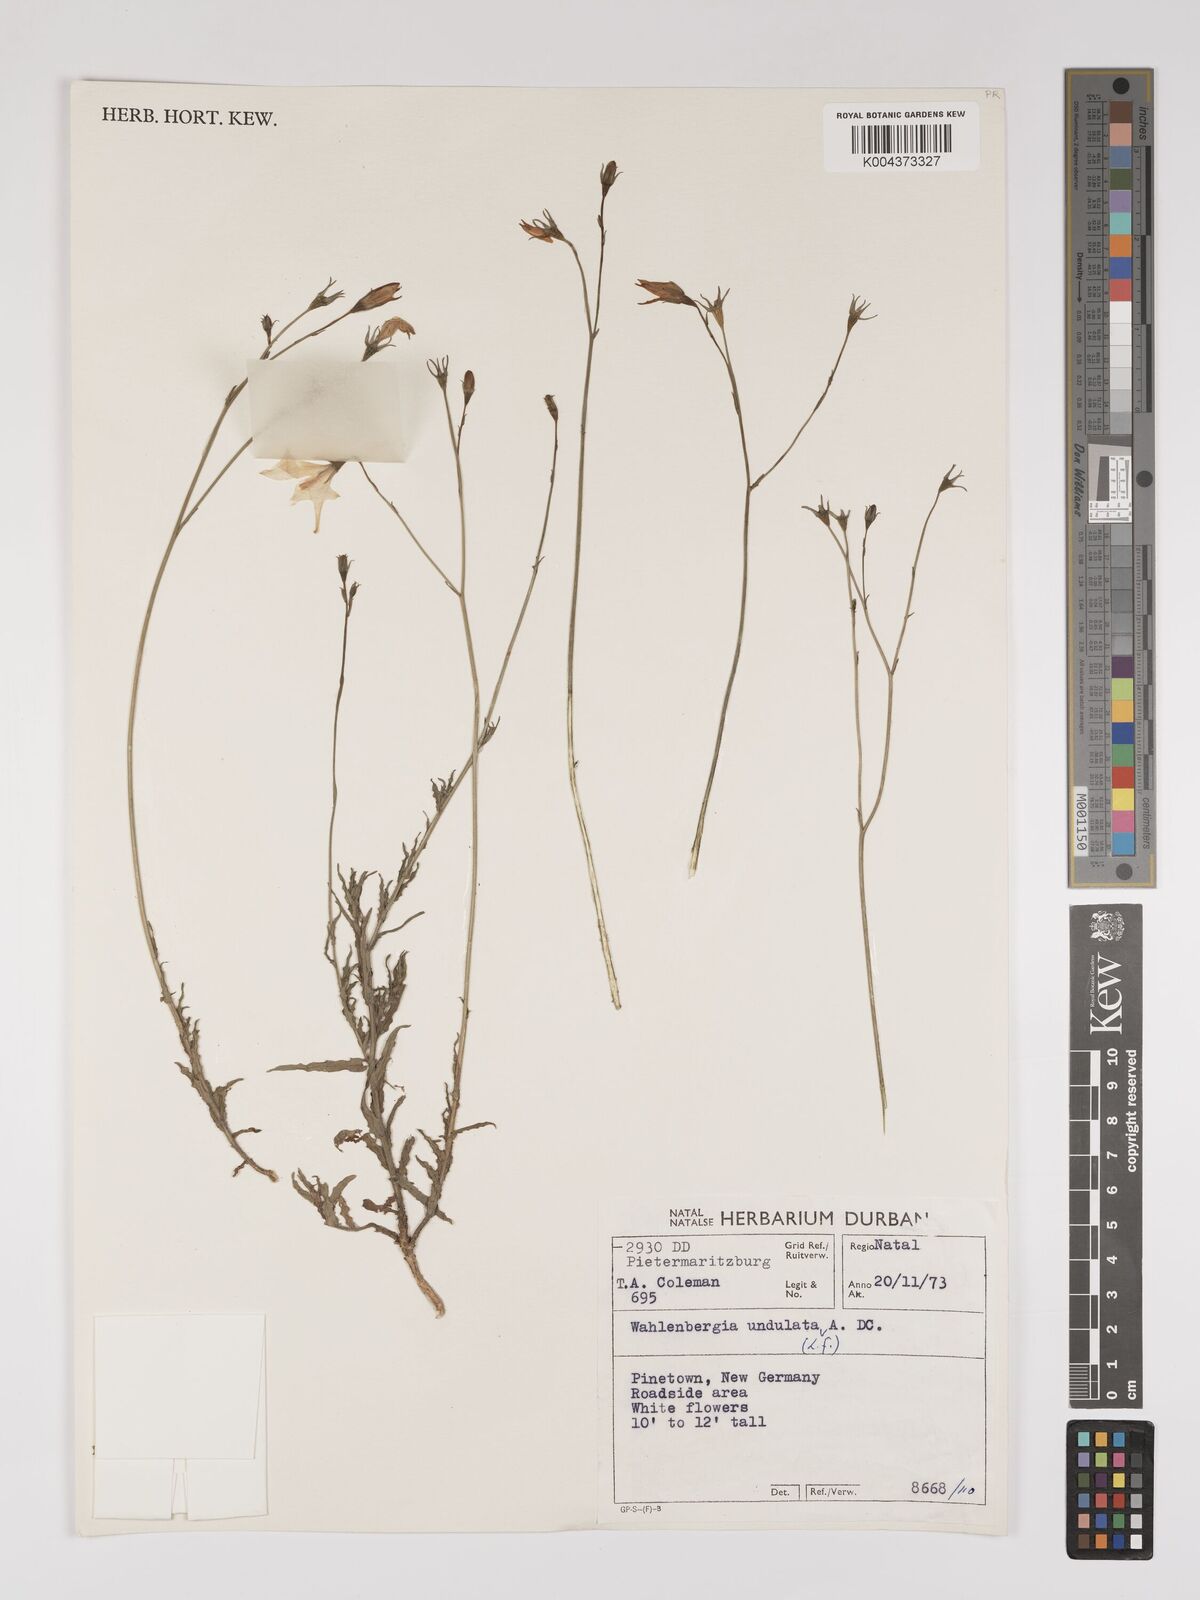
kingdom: Plantae
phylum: Tracheophyta
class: Magnoliopsida
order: Asterales
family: Campanulaceae
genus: Wahlenbergia
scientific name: Wahlenbergia undulata
